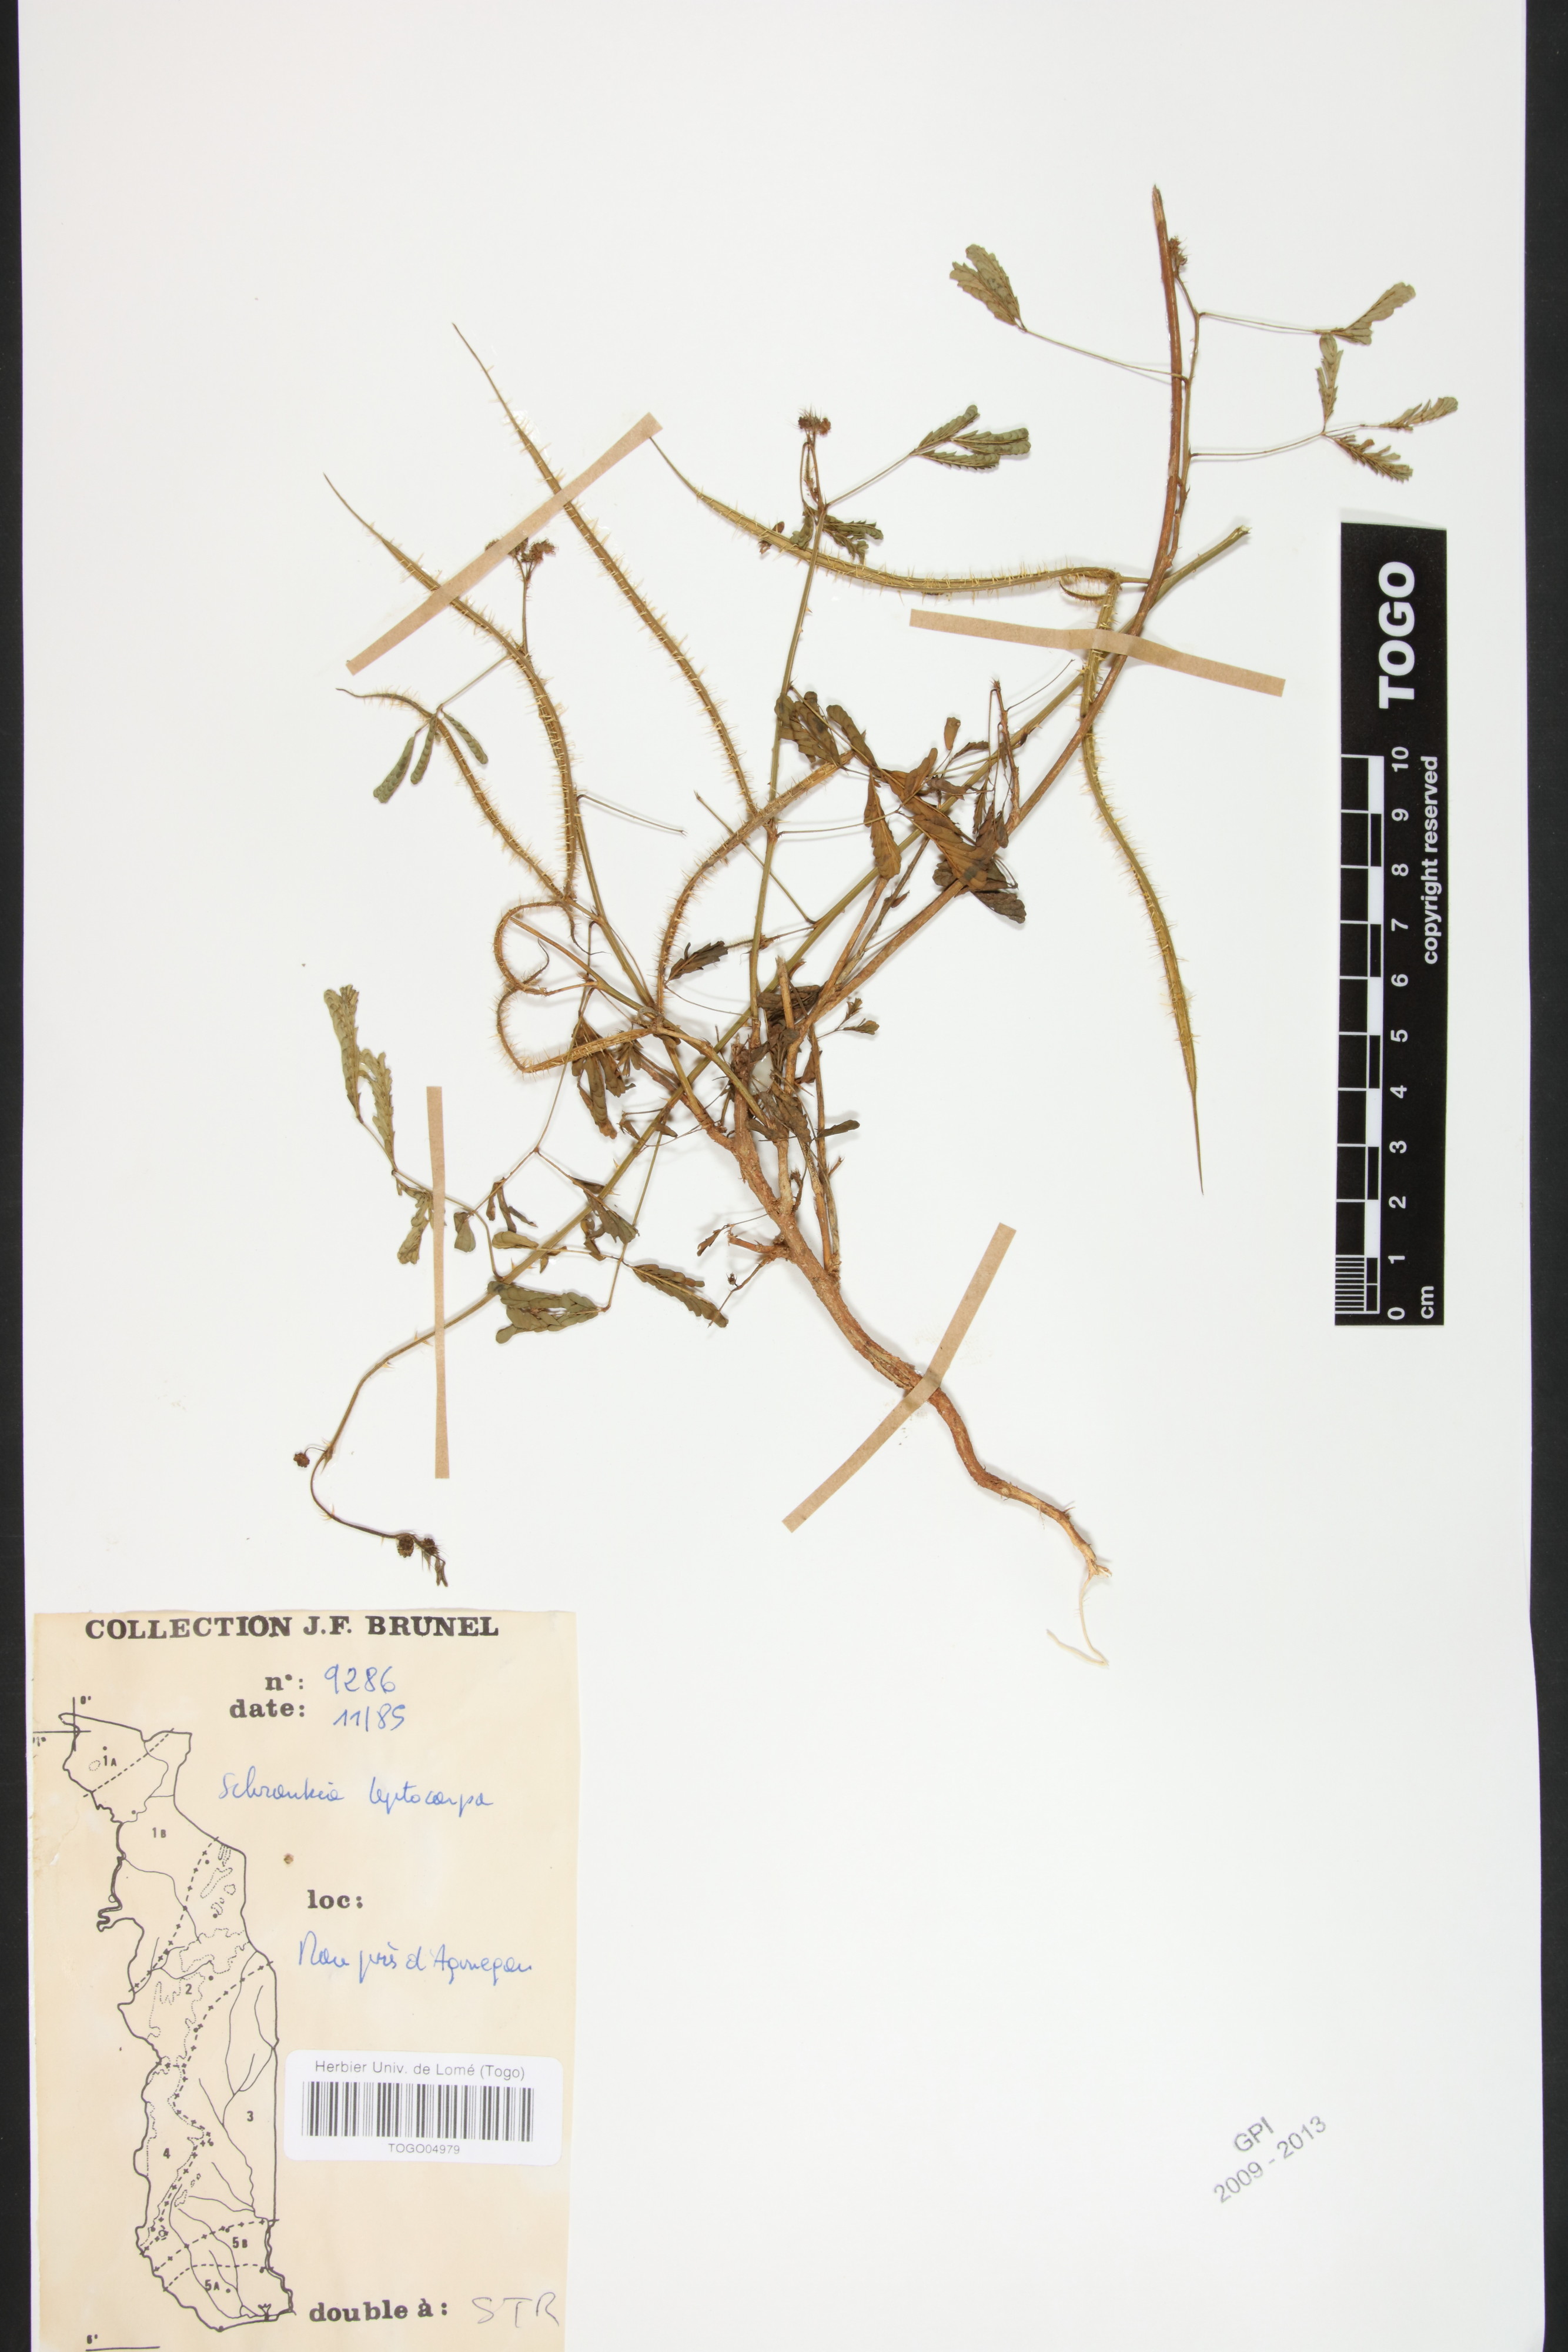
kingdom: Plantae
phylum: Tracheophyta
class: Magnoliopsida
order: Fabales
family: Fabaceae
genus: Mimosa
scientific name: Mimosa candollei
